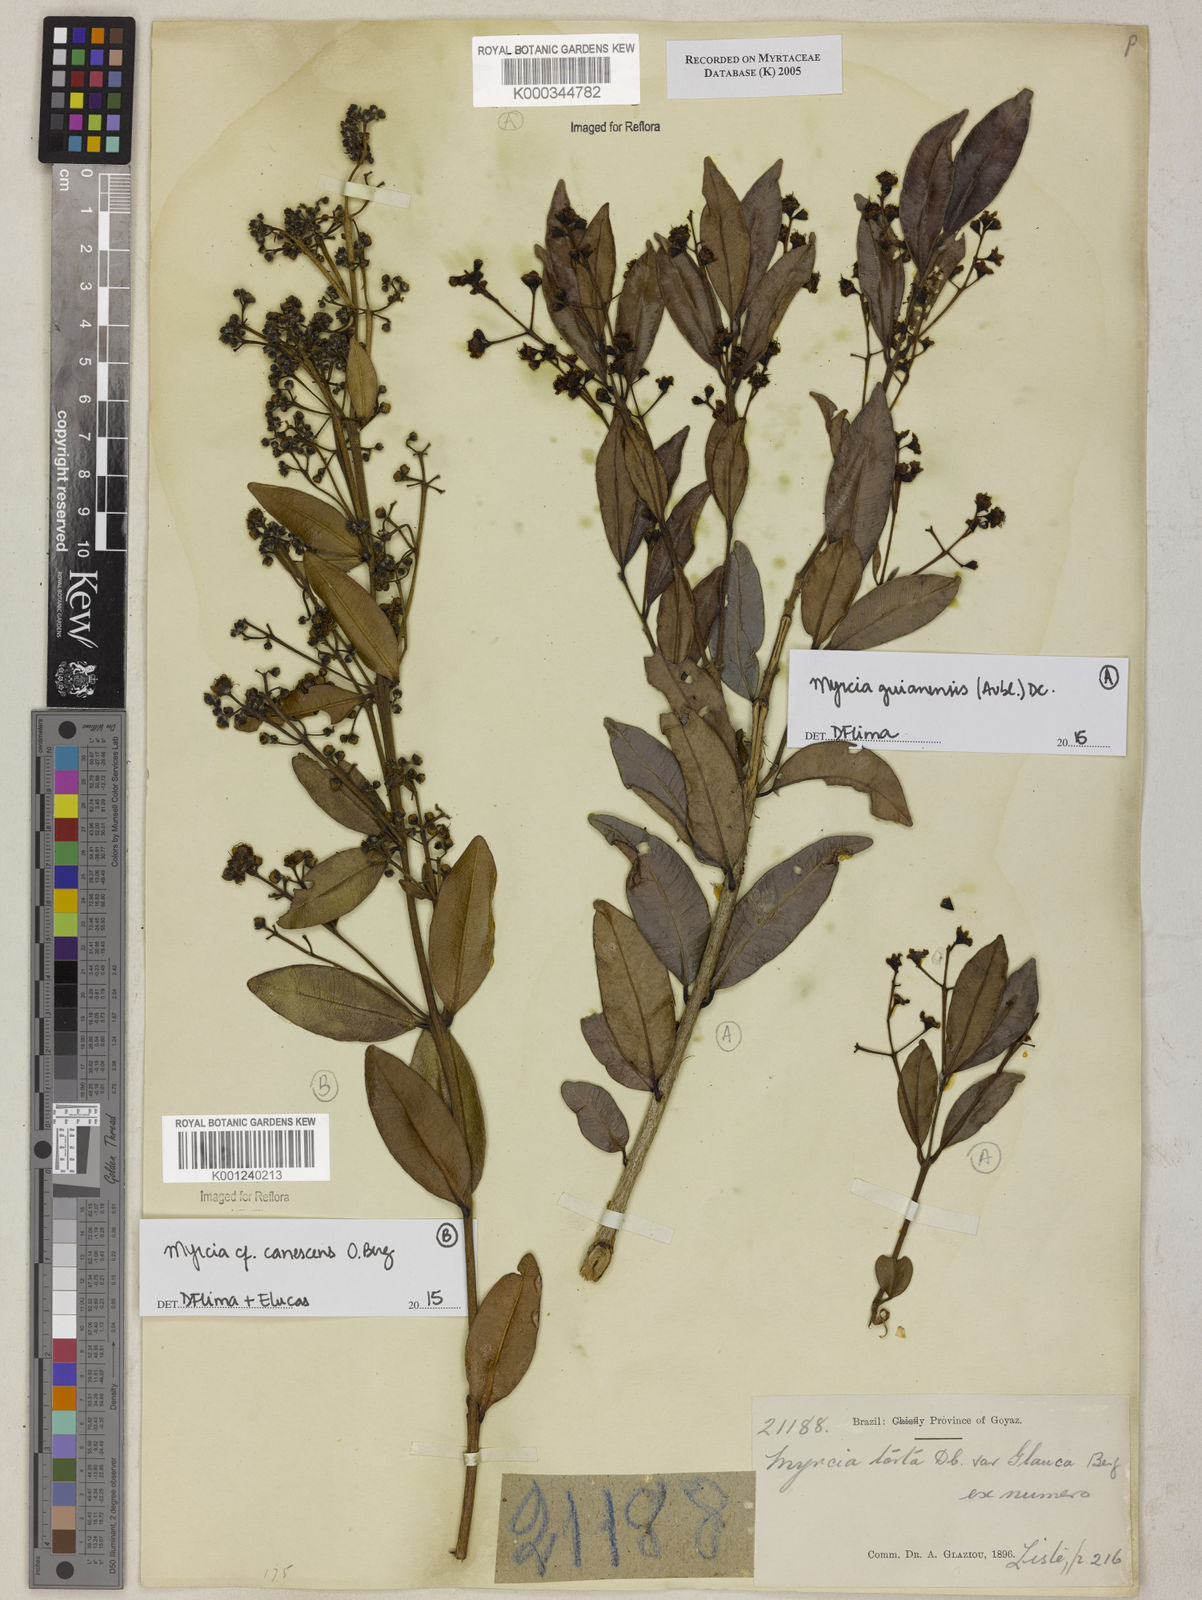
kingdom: Plantae
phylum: Tracheophyta
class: Magnoliopsida
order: Myrtales
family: Myrtaceae
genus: Myrcia
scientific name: Myrcia guianensis
